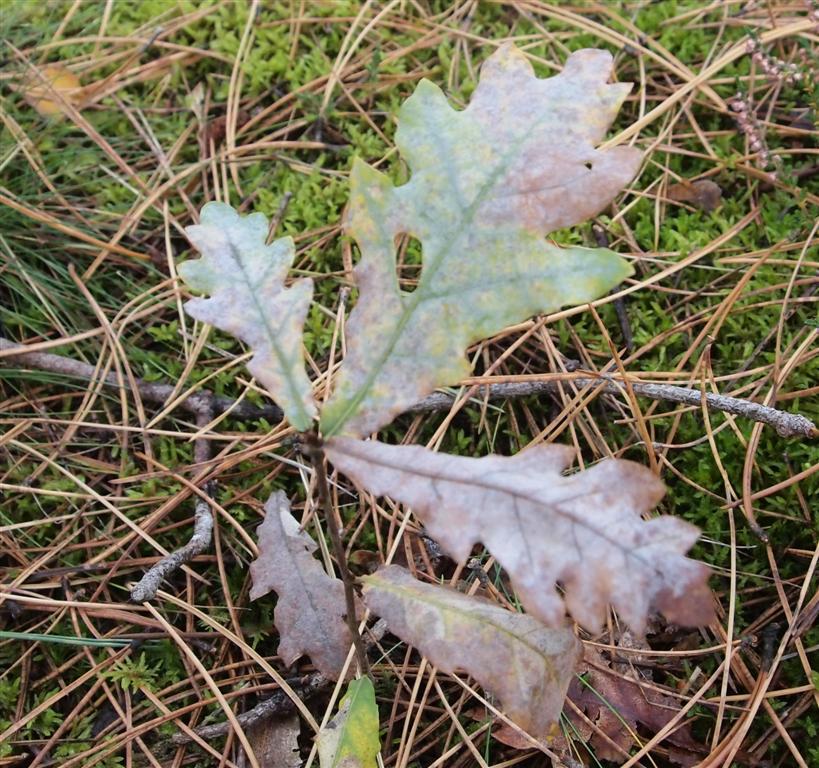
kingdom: Fungi
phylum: Ascomycota
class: Leotiomycetes
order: Helotiales
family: Erysiphaceae
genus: Erysiphe
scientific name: Erysiphe alphitoides
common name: ege-meldug
